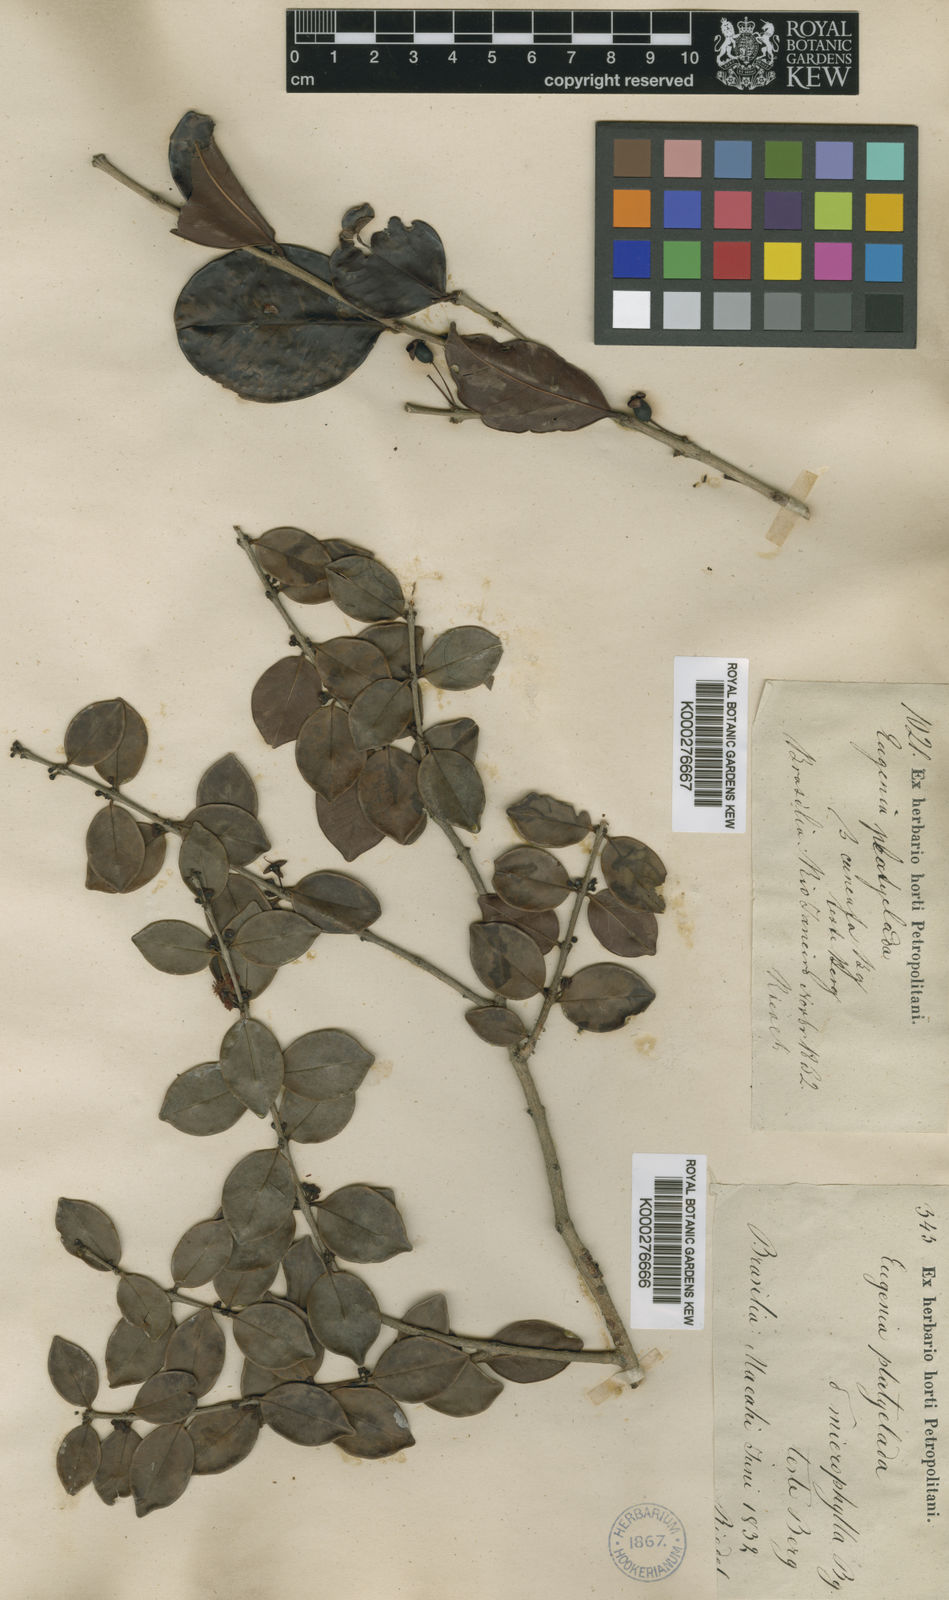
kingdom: Plantae
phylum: Tracheophyta
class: Magnoliopsida
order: Myrtales
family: Myrtaceae
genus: Eugenia
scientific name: Eugenia punicifolia
